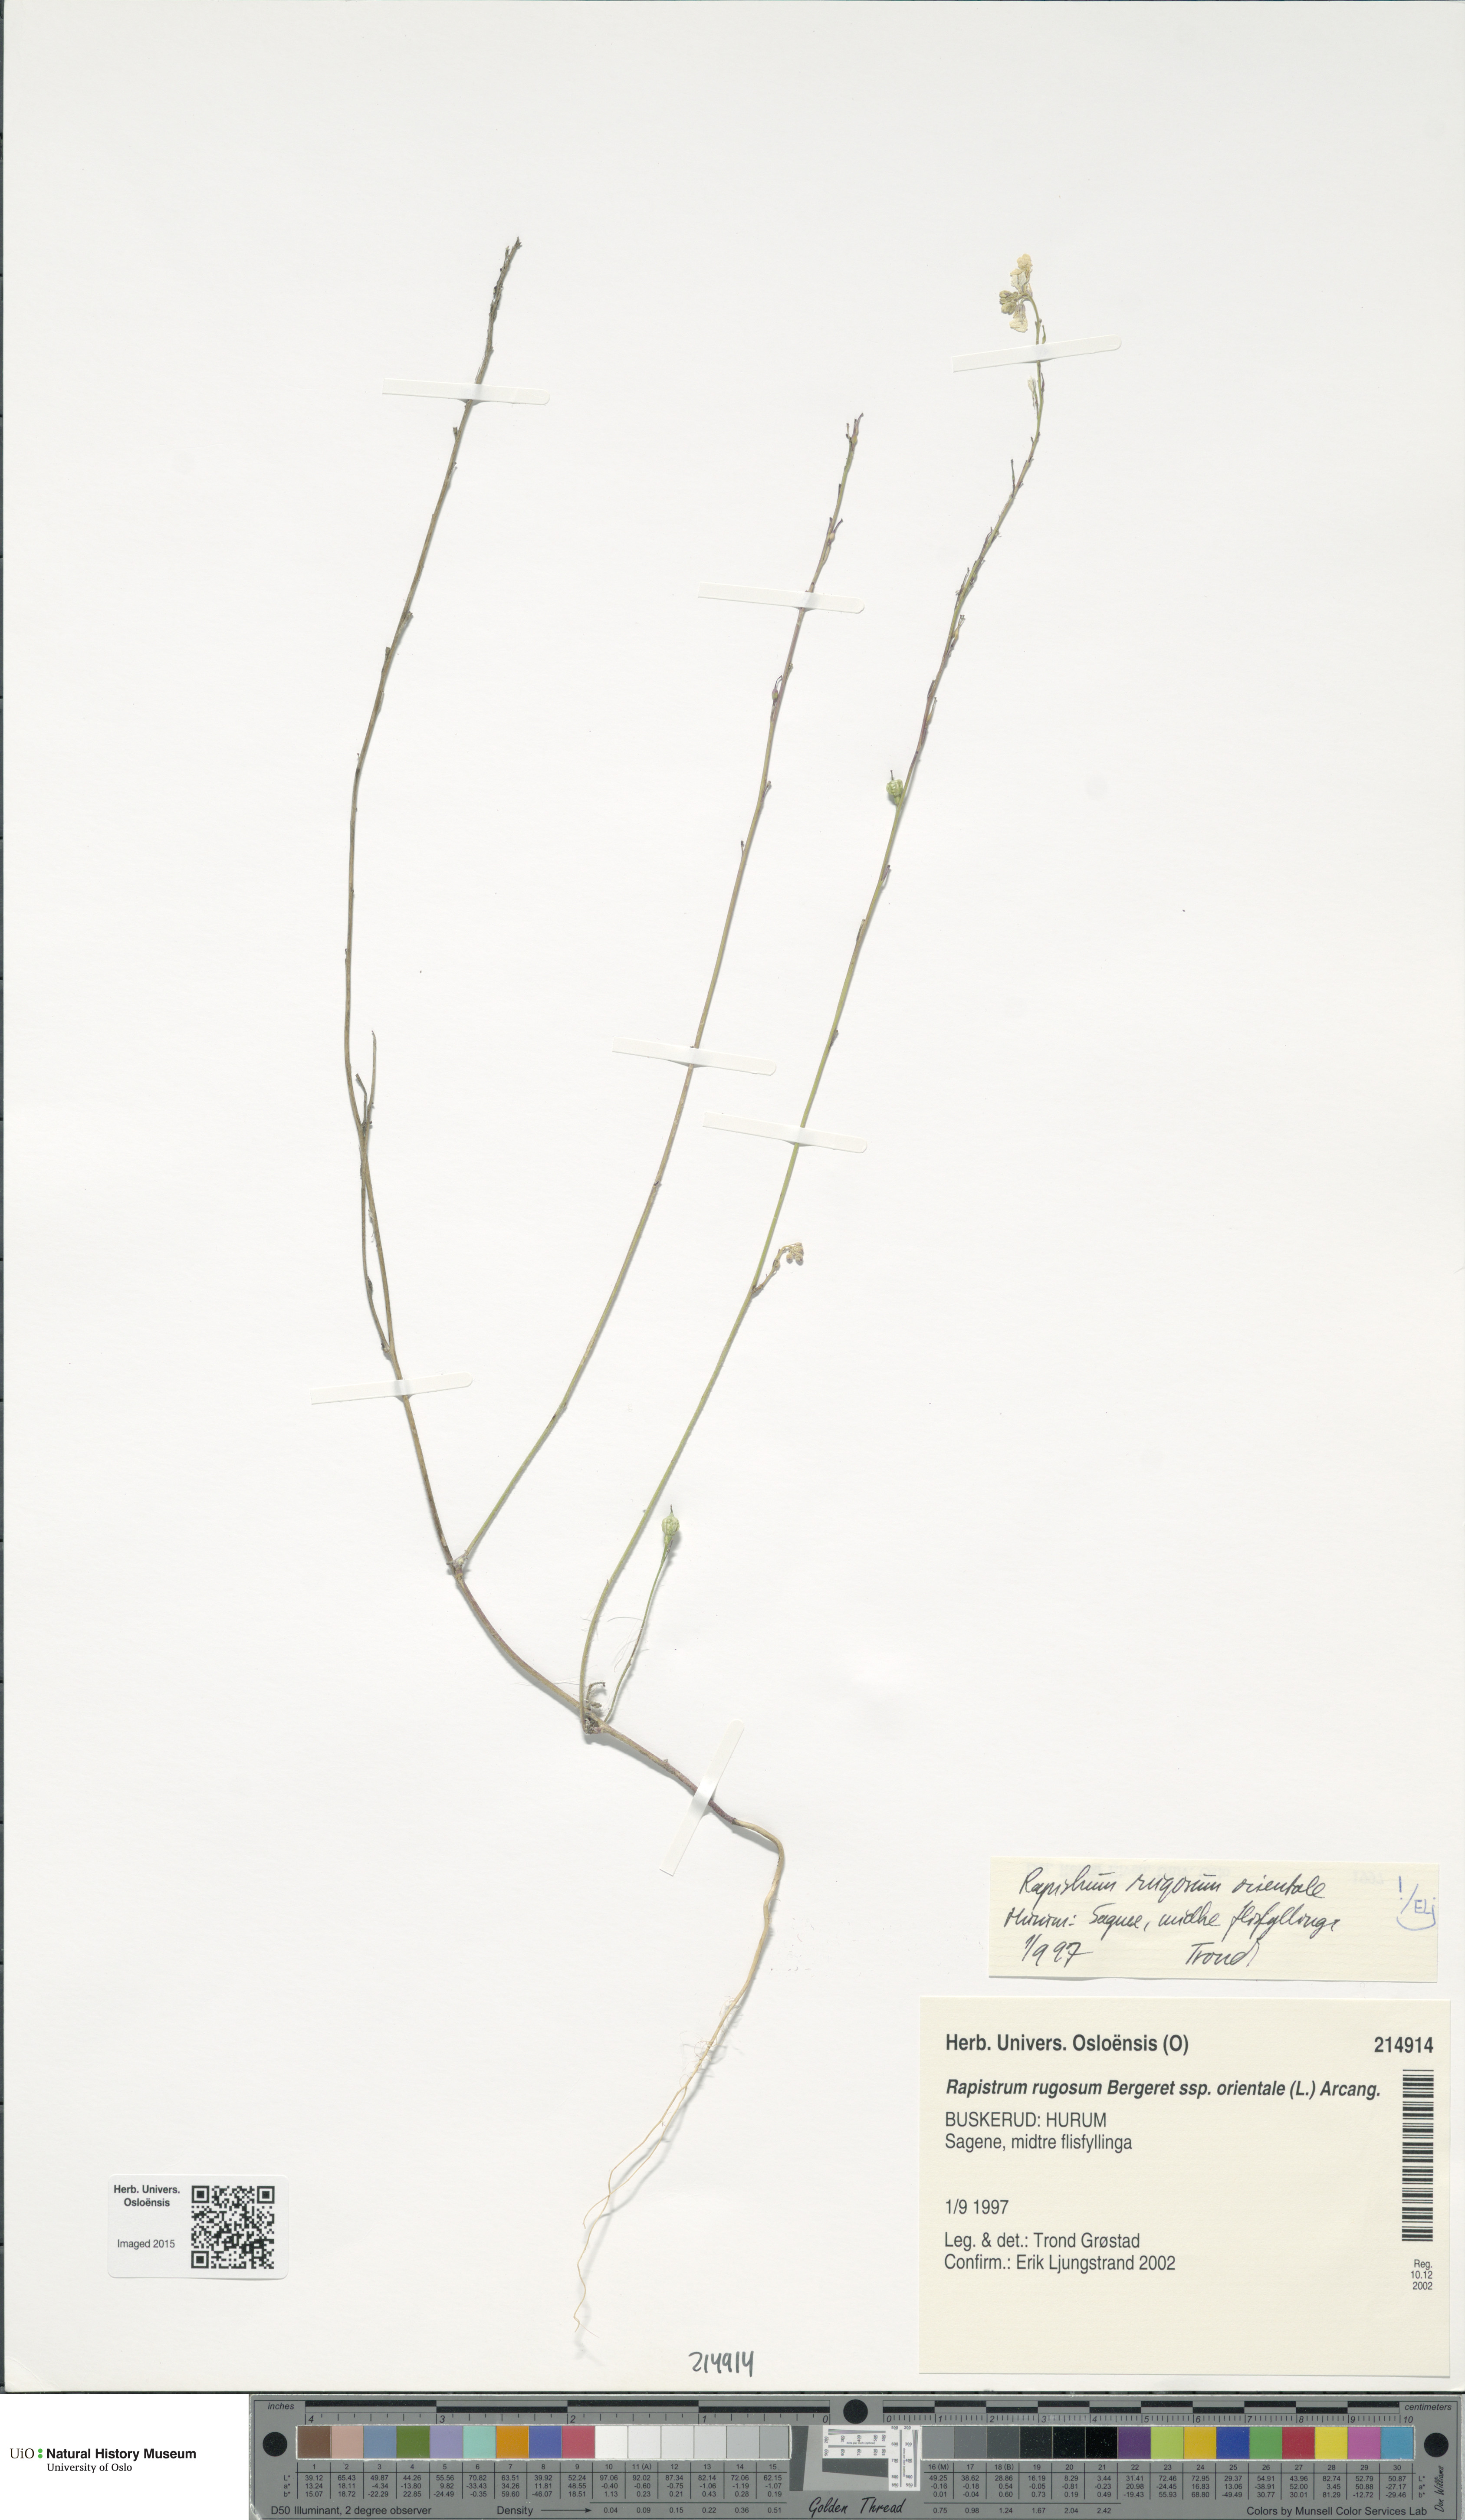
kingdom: Plantae
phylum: Tracheophyta
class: Magnoliopsida
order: Brassicales
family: Brassicaceae
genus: Rapistrum
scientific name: Rapistrum rugosum
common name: Annual bastardcabbage
